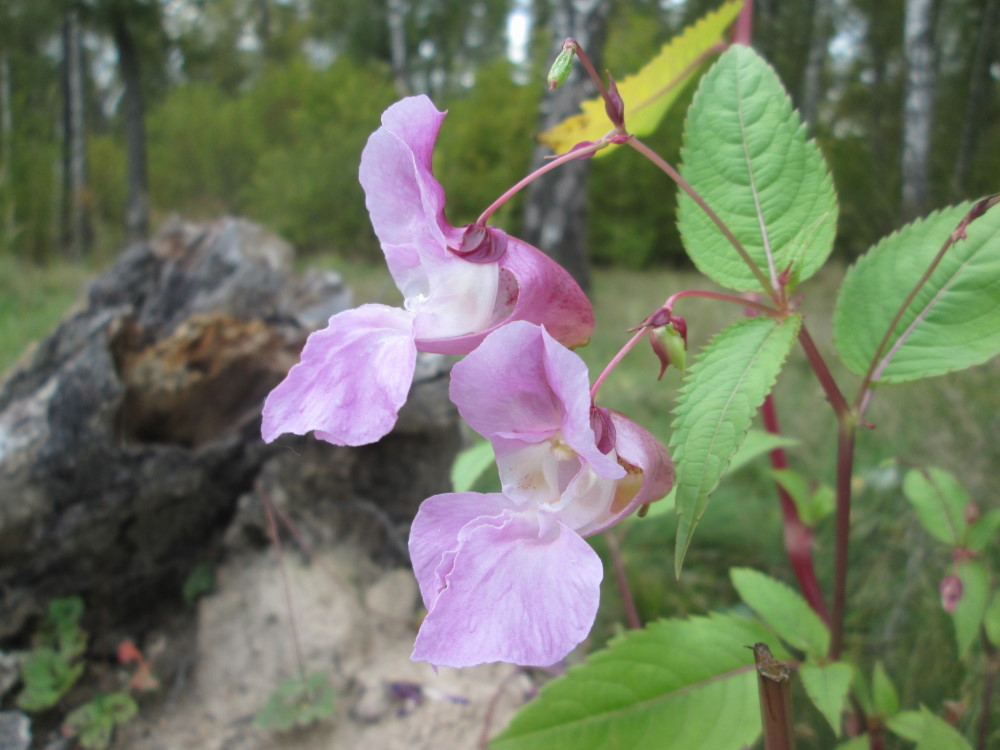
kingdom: Plantae
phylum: Tracheophyta
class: Magnoliopsida
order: Ericales
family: Balsaminaceae
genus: Impatiens
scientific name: Impatiens glandulifera
